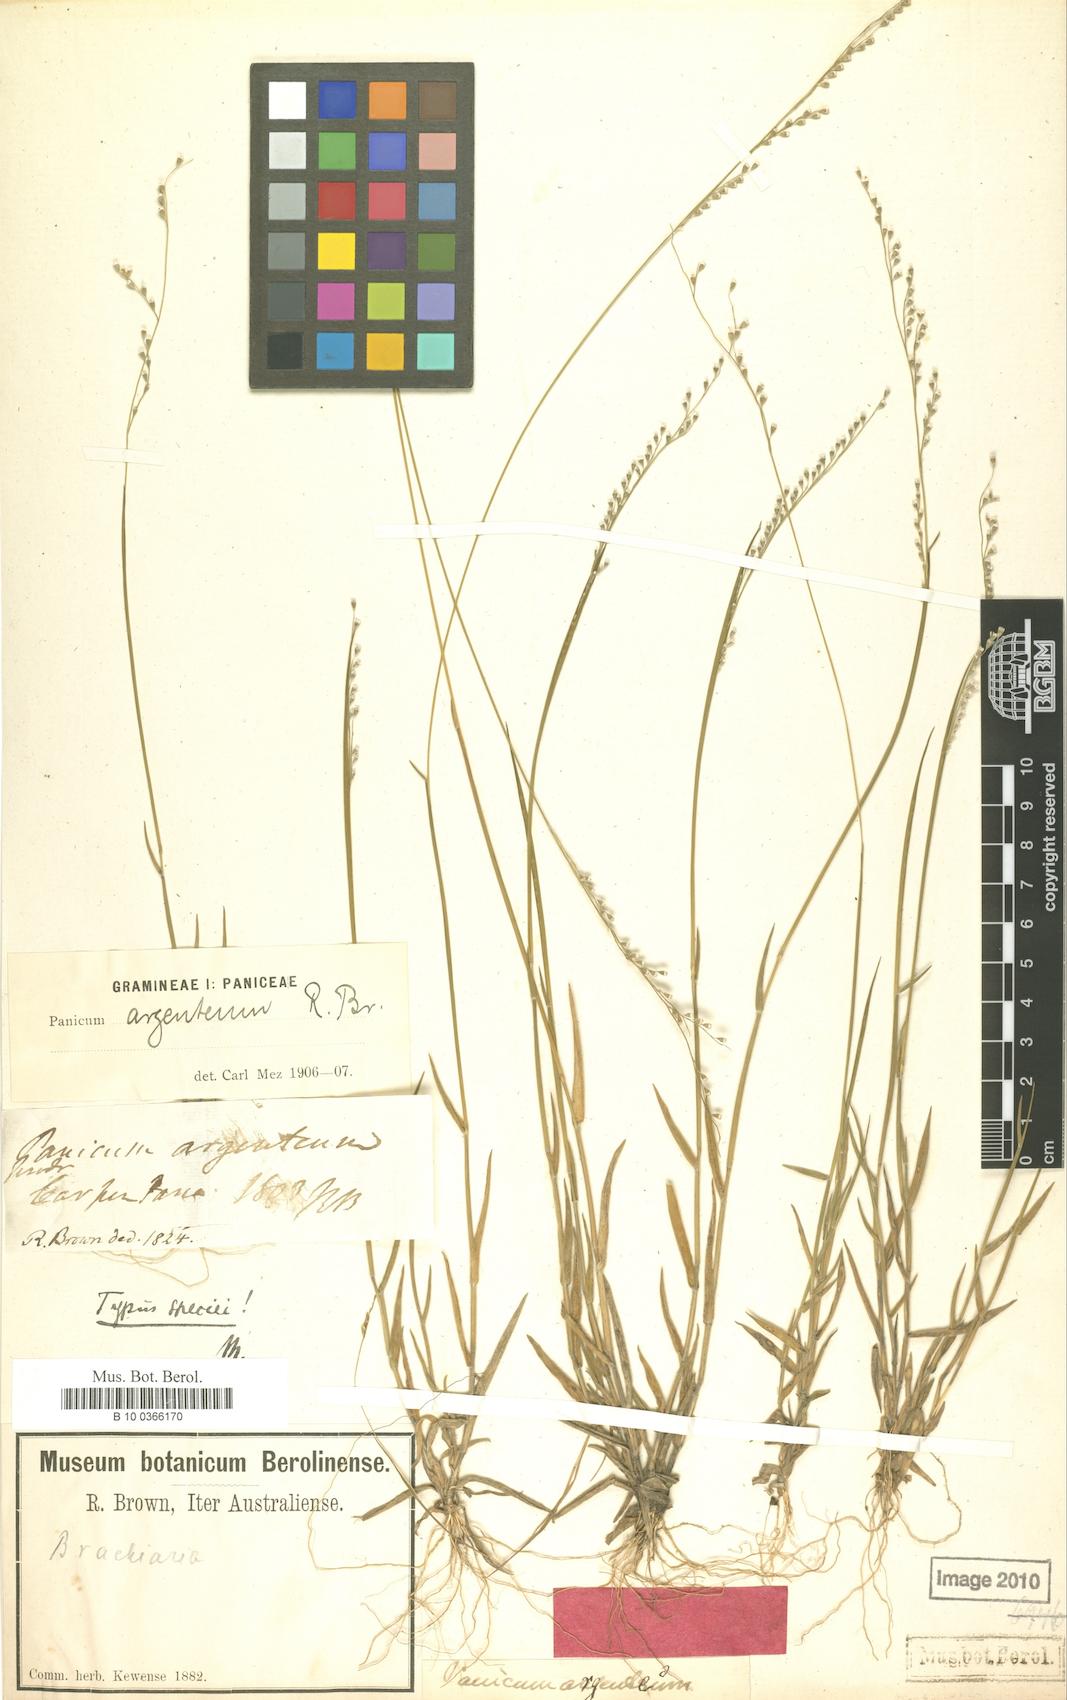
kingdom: Plantae
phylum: Tracheophyta
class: Liliopsida
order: Poales
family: Poaceae
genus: Urochloa
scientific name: Urochloa argentea
